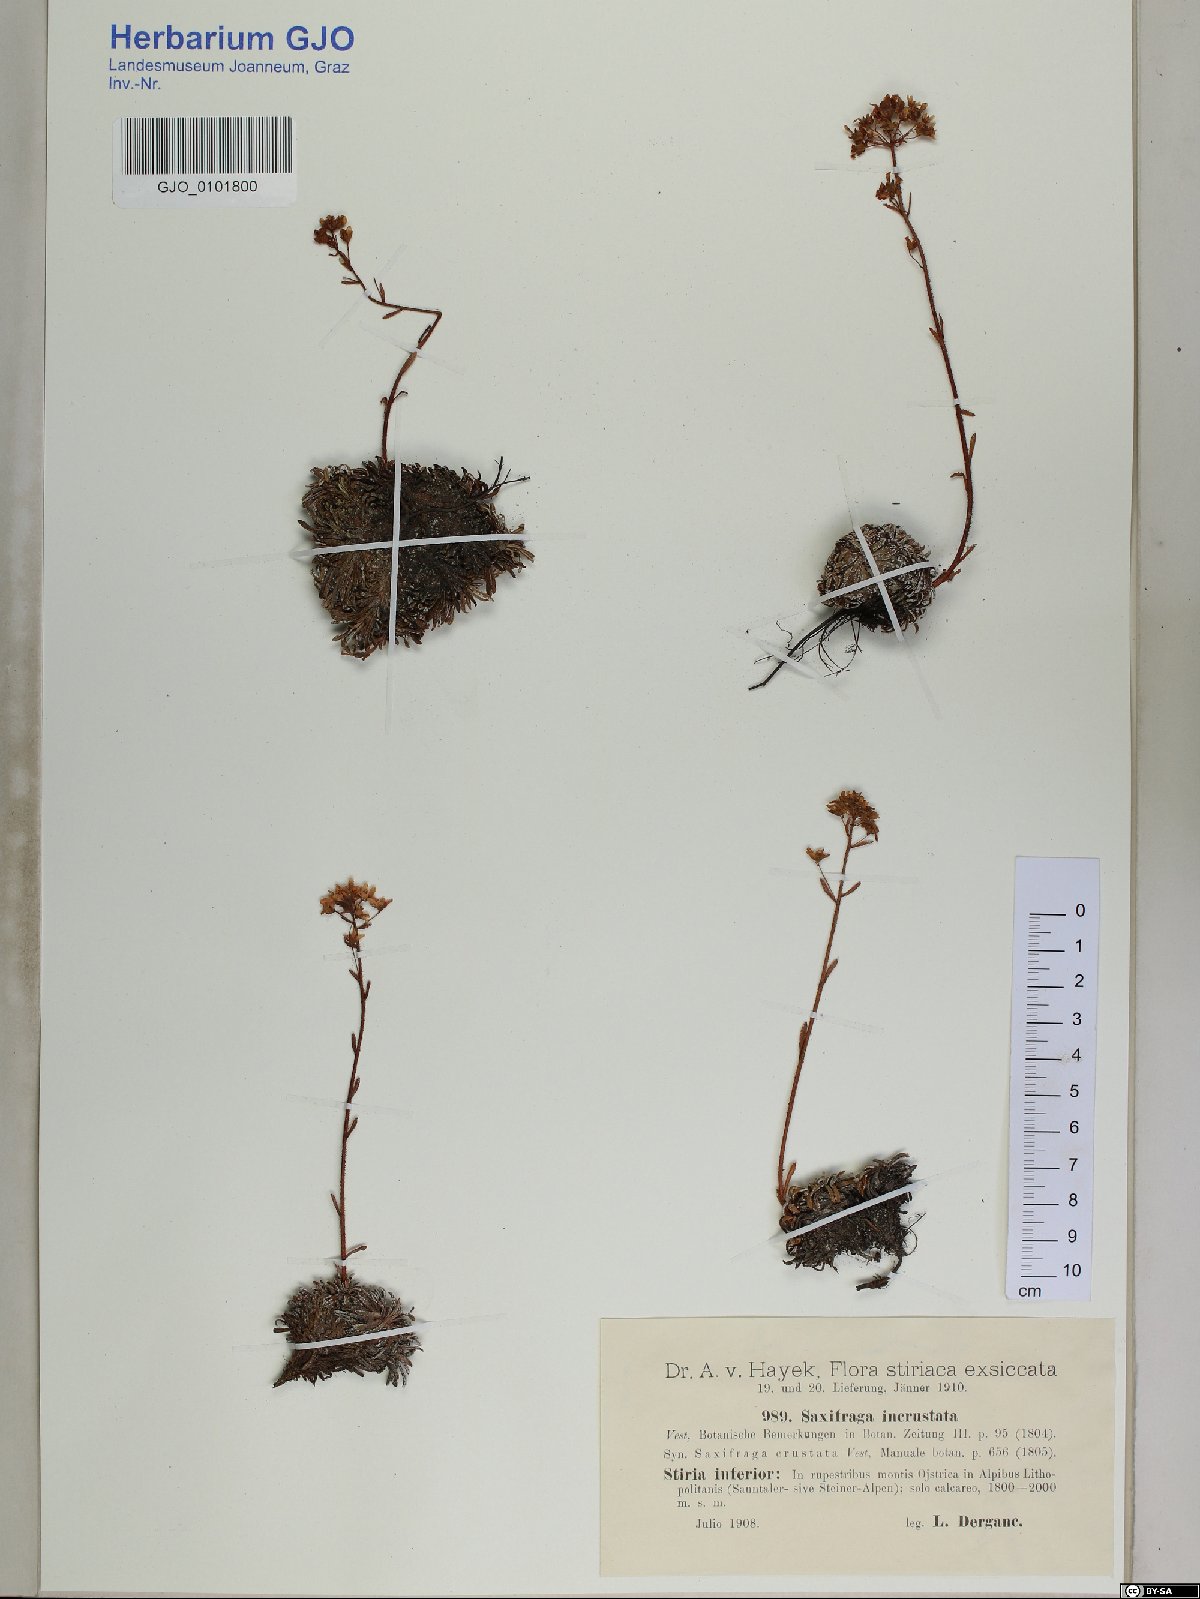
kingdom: Plantae
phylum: Tracheophyta
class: Magnoliopsida
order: Saxifragales
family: Saxifragaceae
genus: Saxifraga
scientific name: Saxifraga crustata
